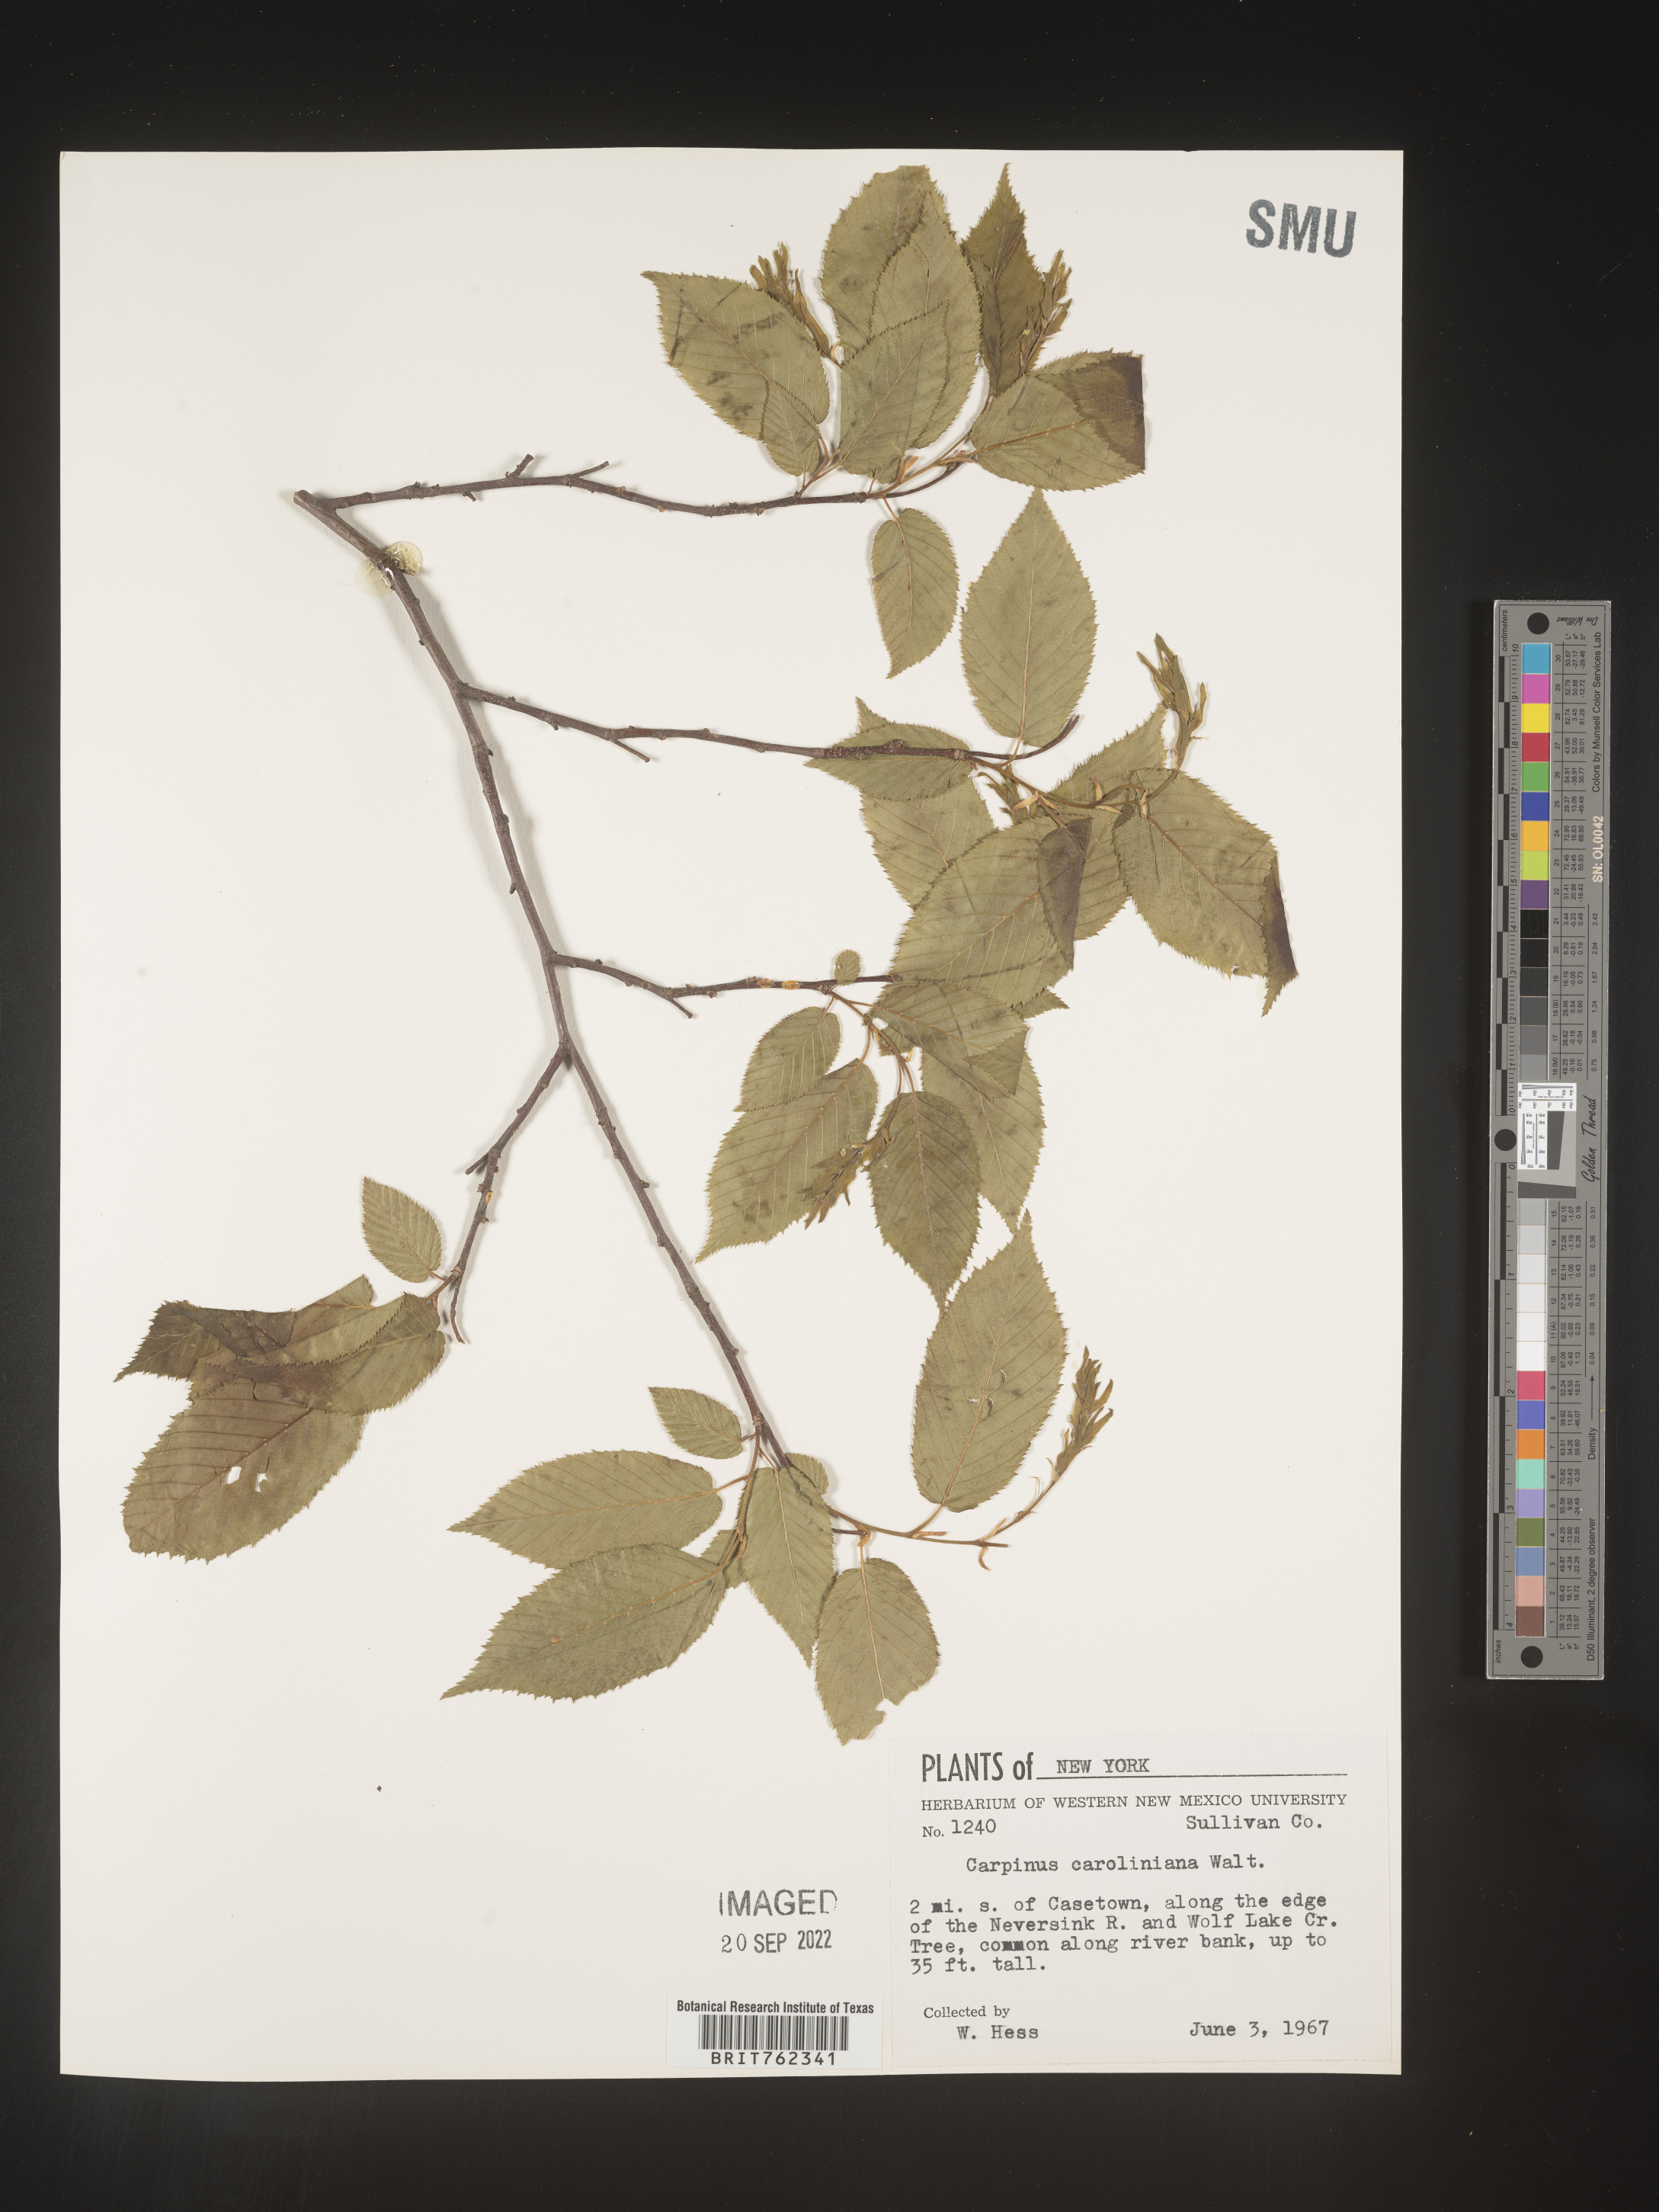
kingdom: Plantae
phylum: Tracheophyta
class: Magnoliopsida
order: Fagales
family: Betulaceae
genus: Carpinus
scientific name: Carpinus caroliniana
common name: American hornbeam
